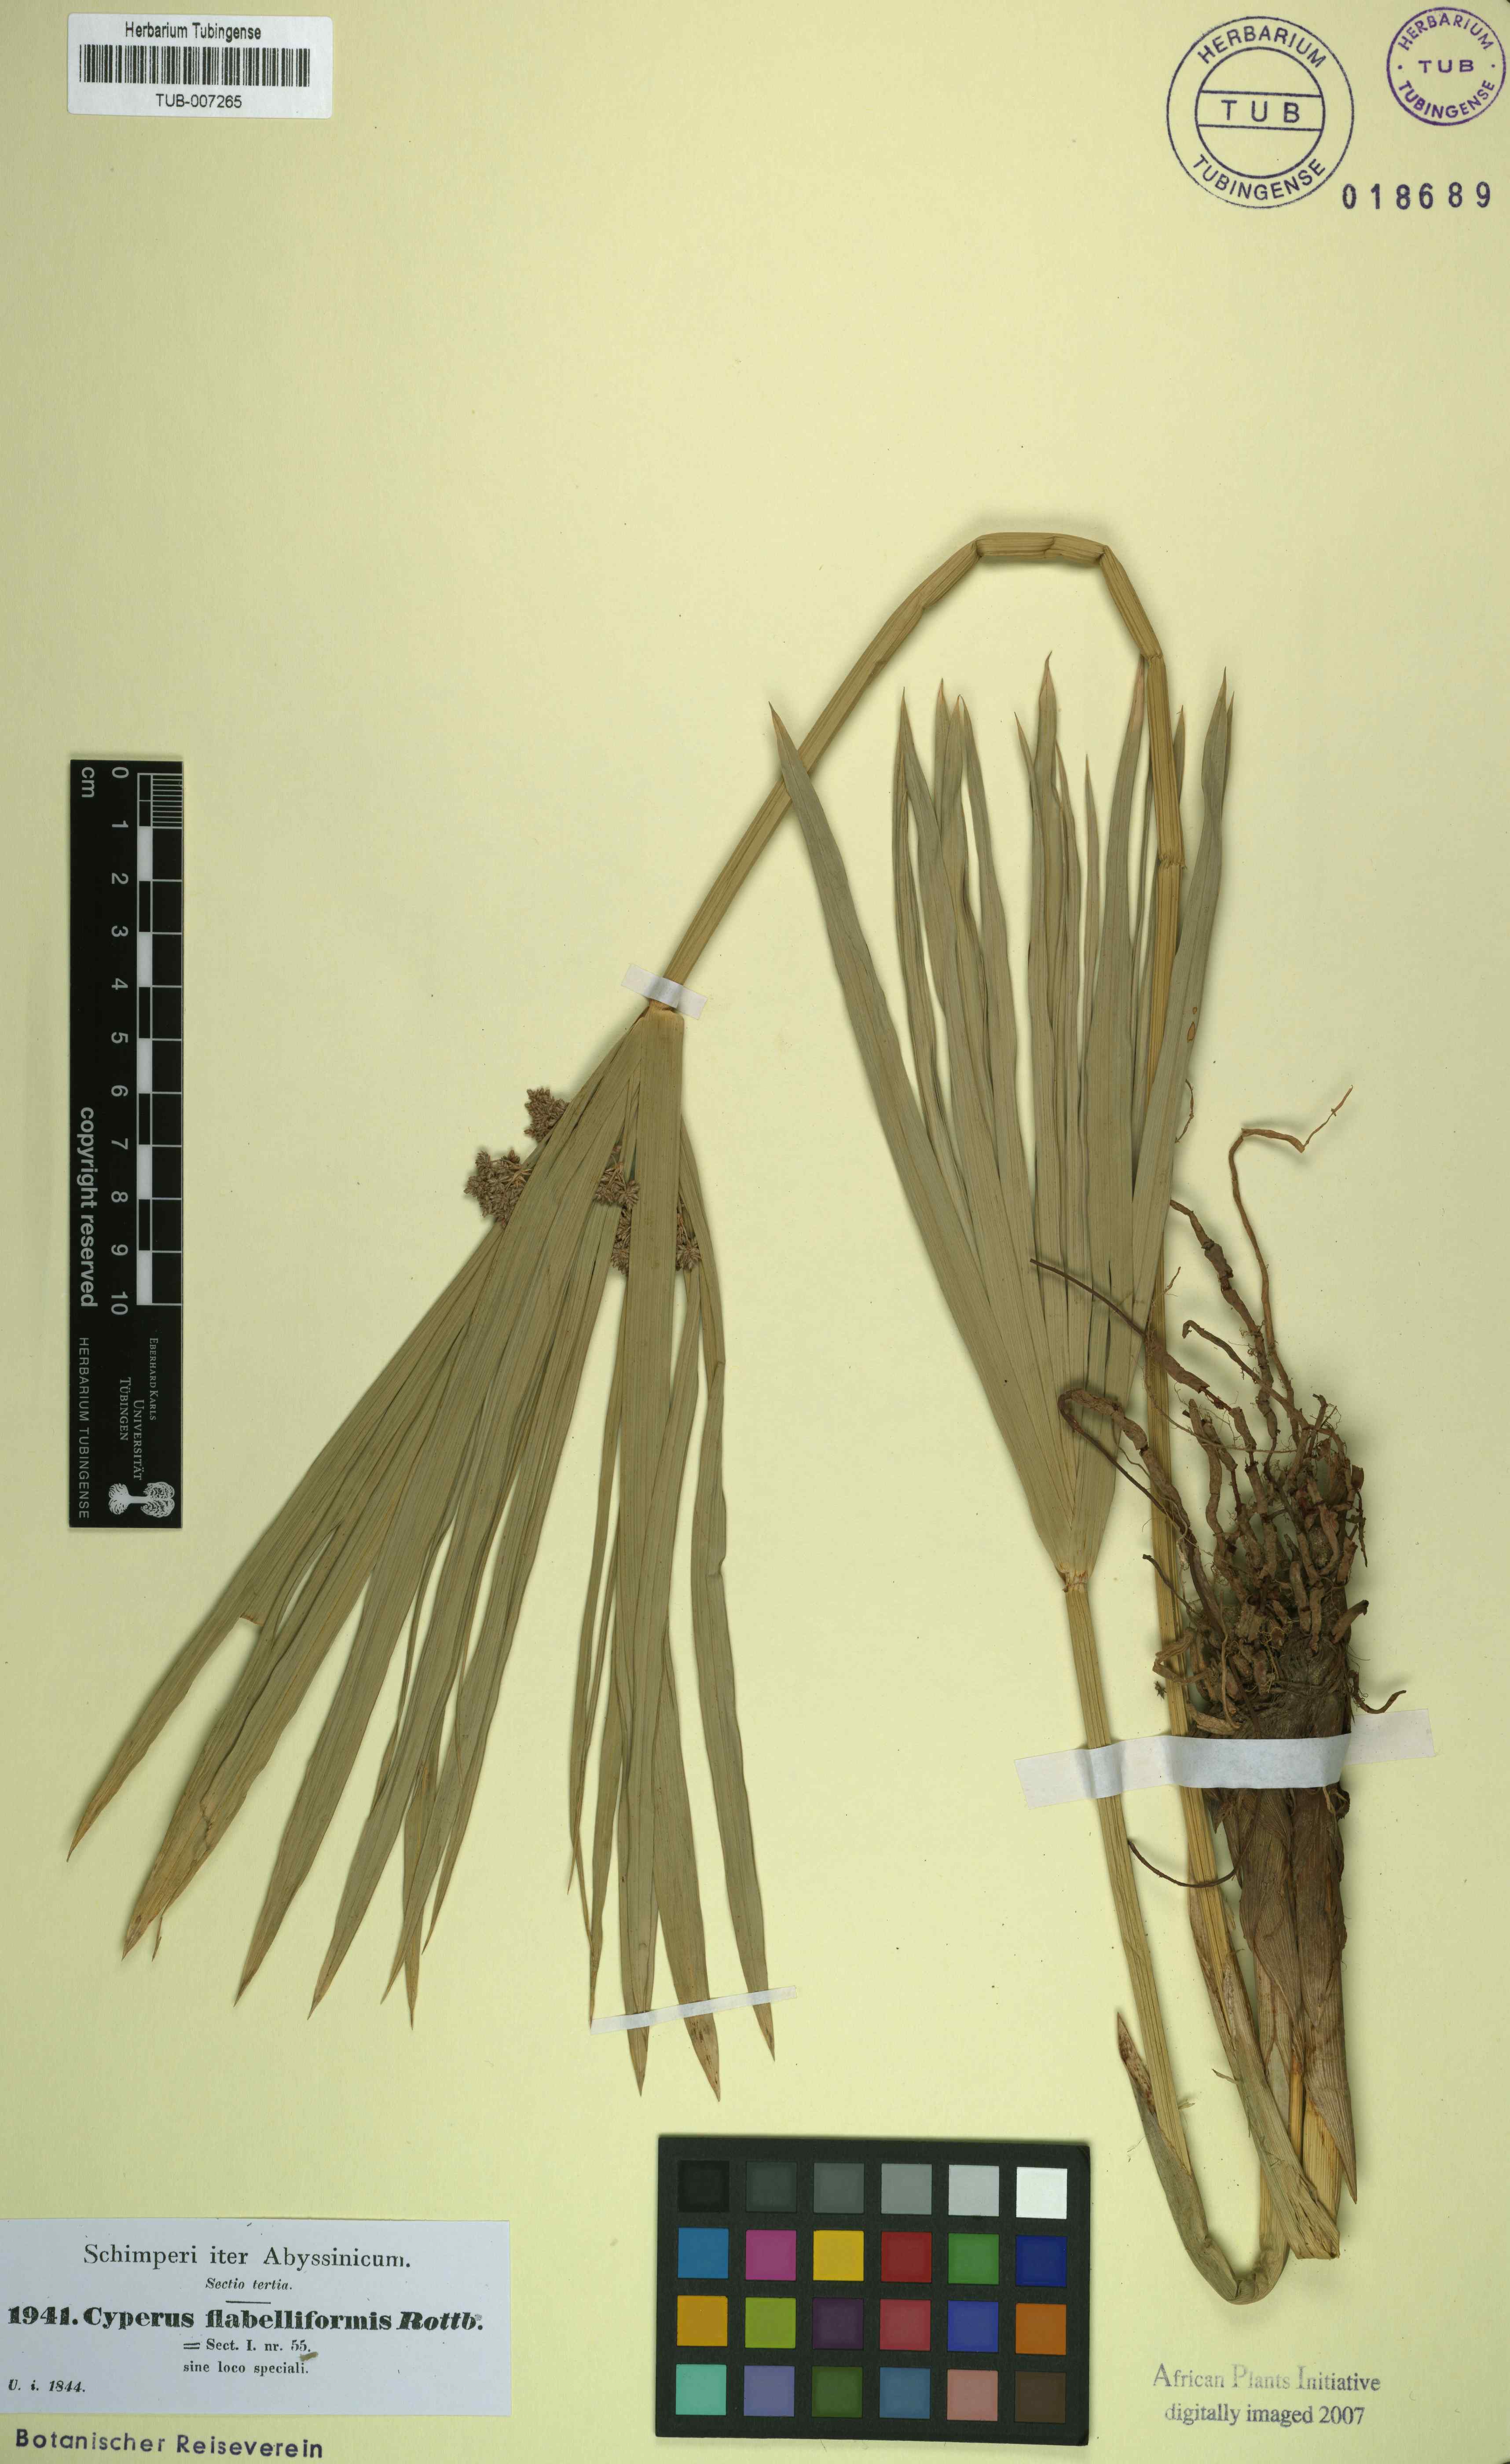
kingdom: Plantae
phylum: Tracheophyta
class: Liliopsida
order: Poales
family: Cyperaceae
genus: Cyperus
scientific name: Cyperus alternifolius
